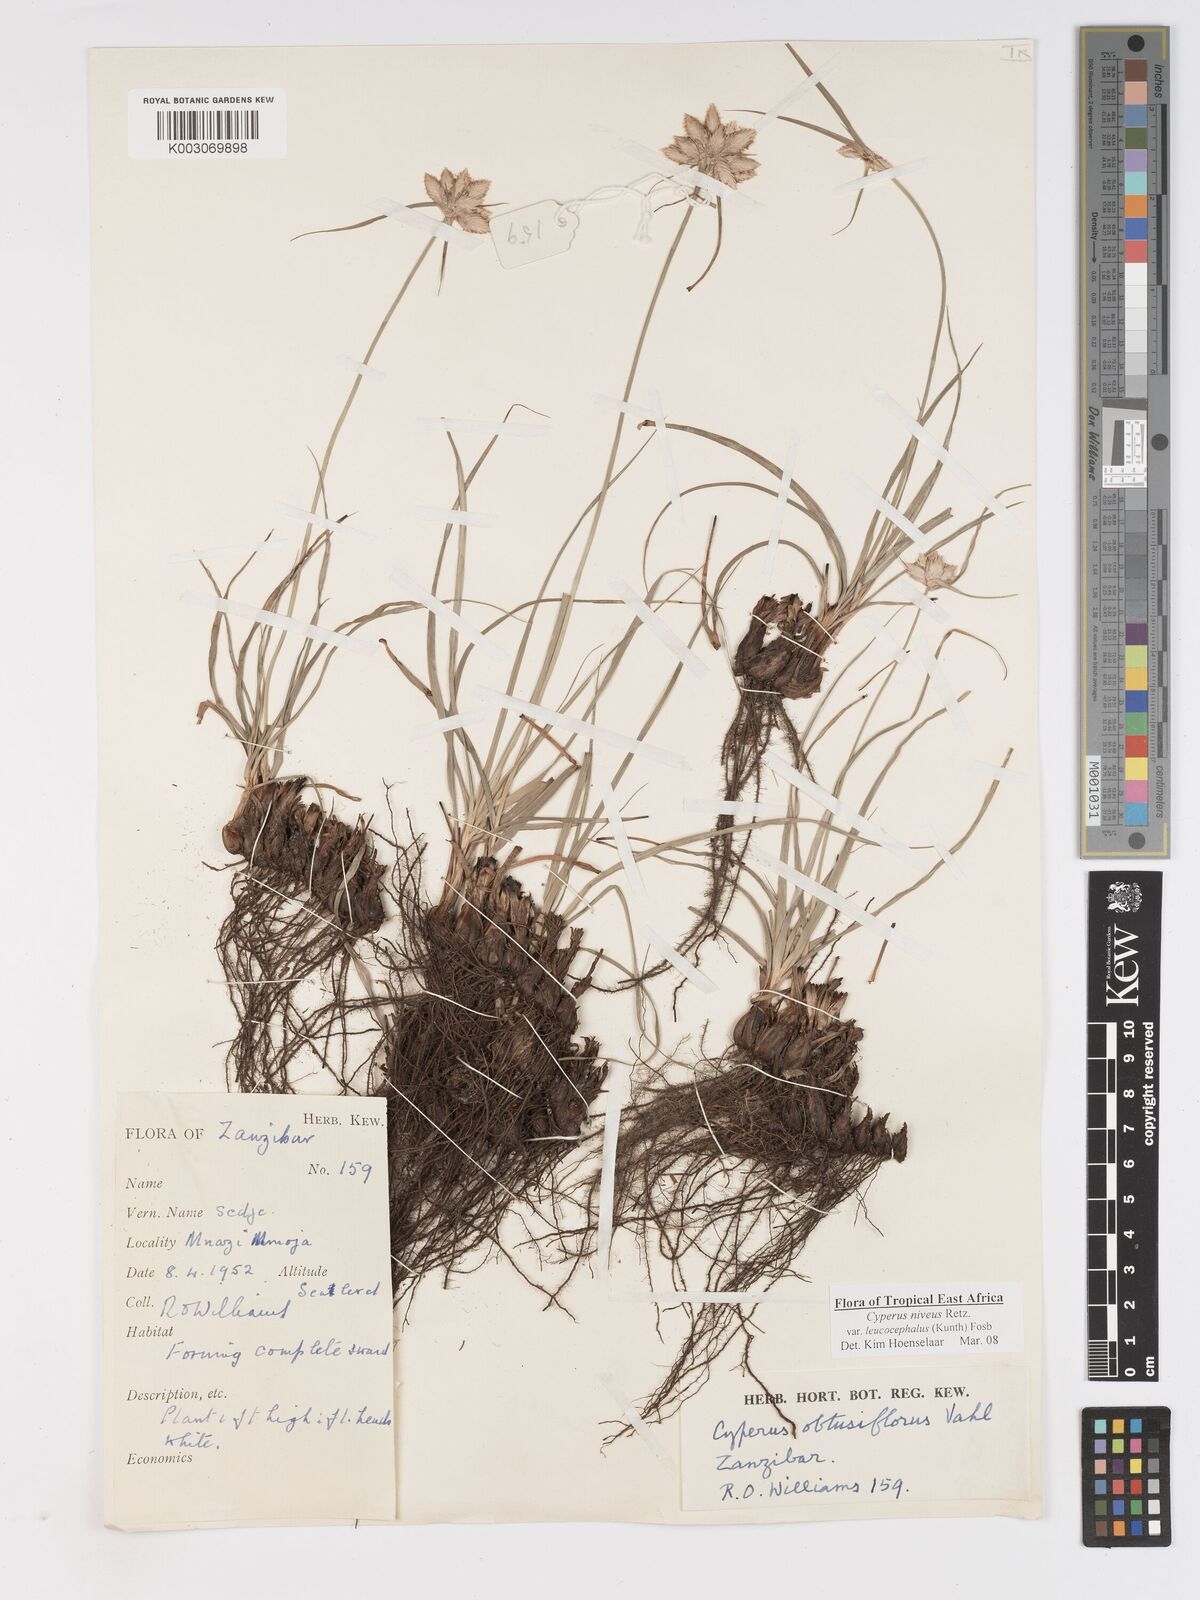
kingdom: Plantae
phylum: Tracheophyta
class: Liliopsida
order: Poales
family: Cyperaceae
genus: Cyperus
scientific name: Cyperus niveus
